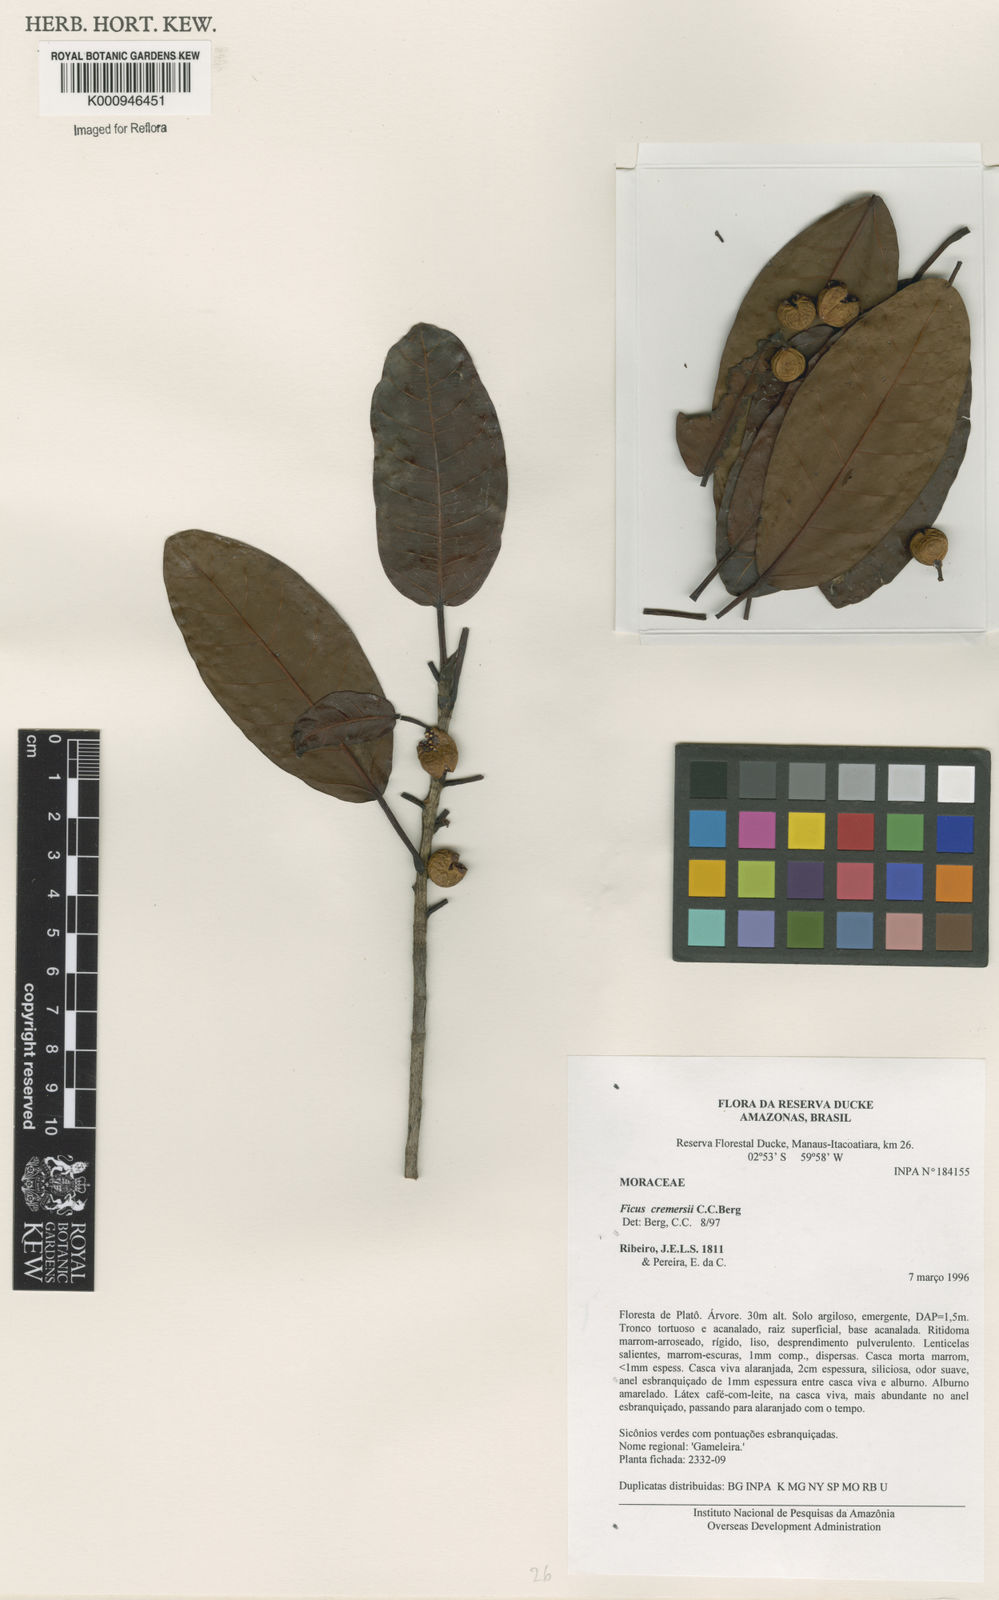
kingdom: Plantae
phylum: Tracheophyta
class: Magnoliopsida
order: Rosales
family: Moraceae
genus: Ficus
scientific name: Ficus cremersii
